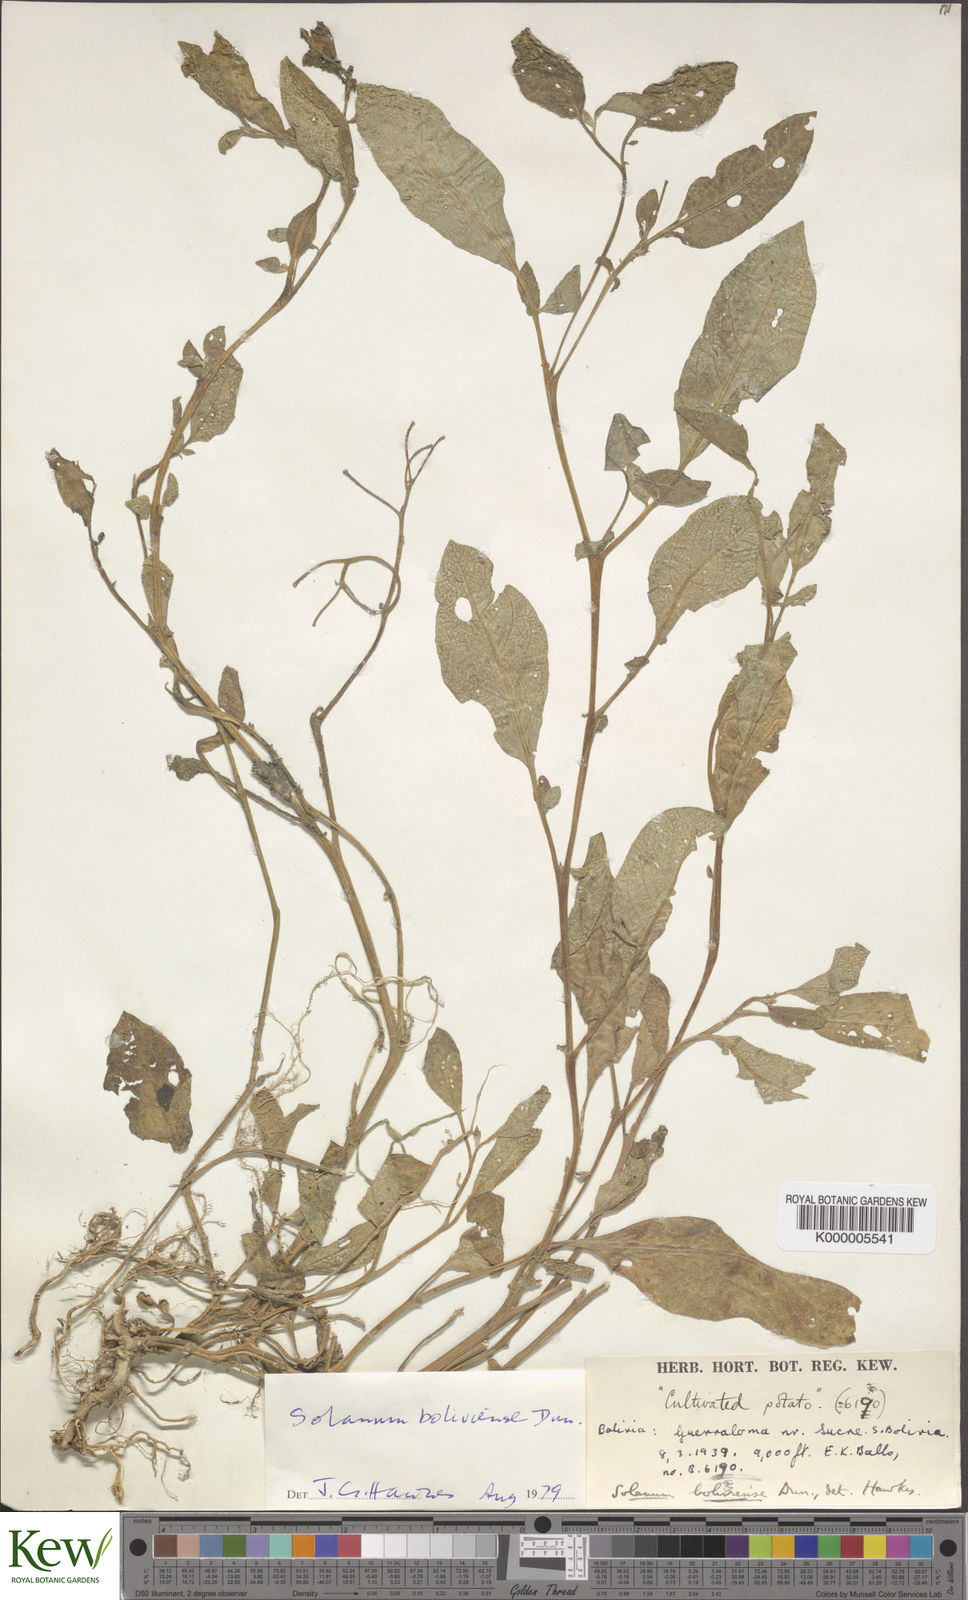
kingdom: Plantae
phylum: Tracheophyta
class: Magnoliopsida
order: Solanales
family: Solanaceae
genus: Solanum
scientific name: Solanum boliviense
